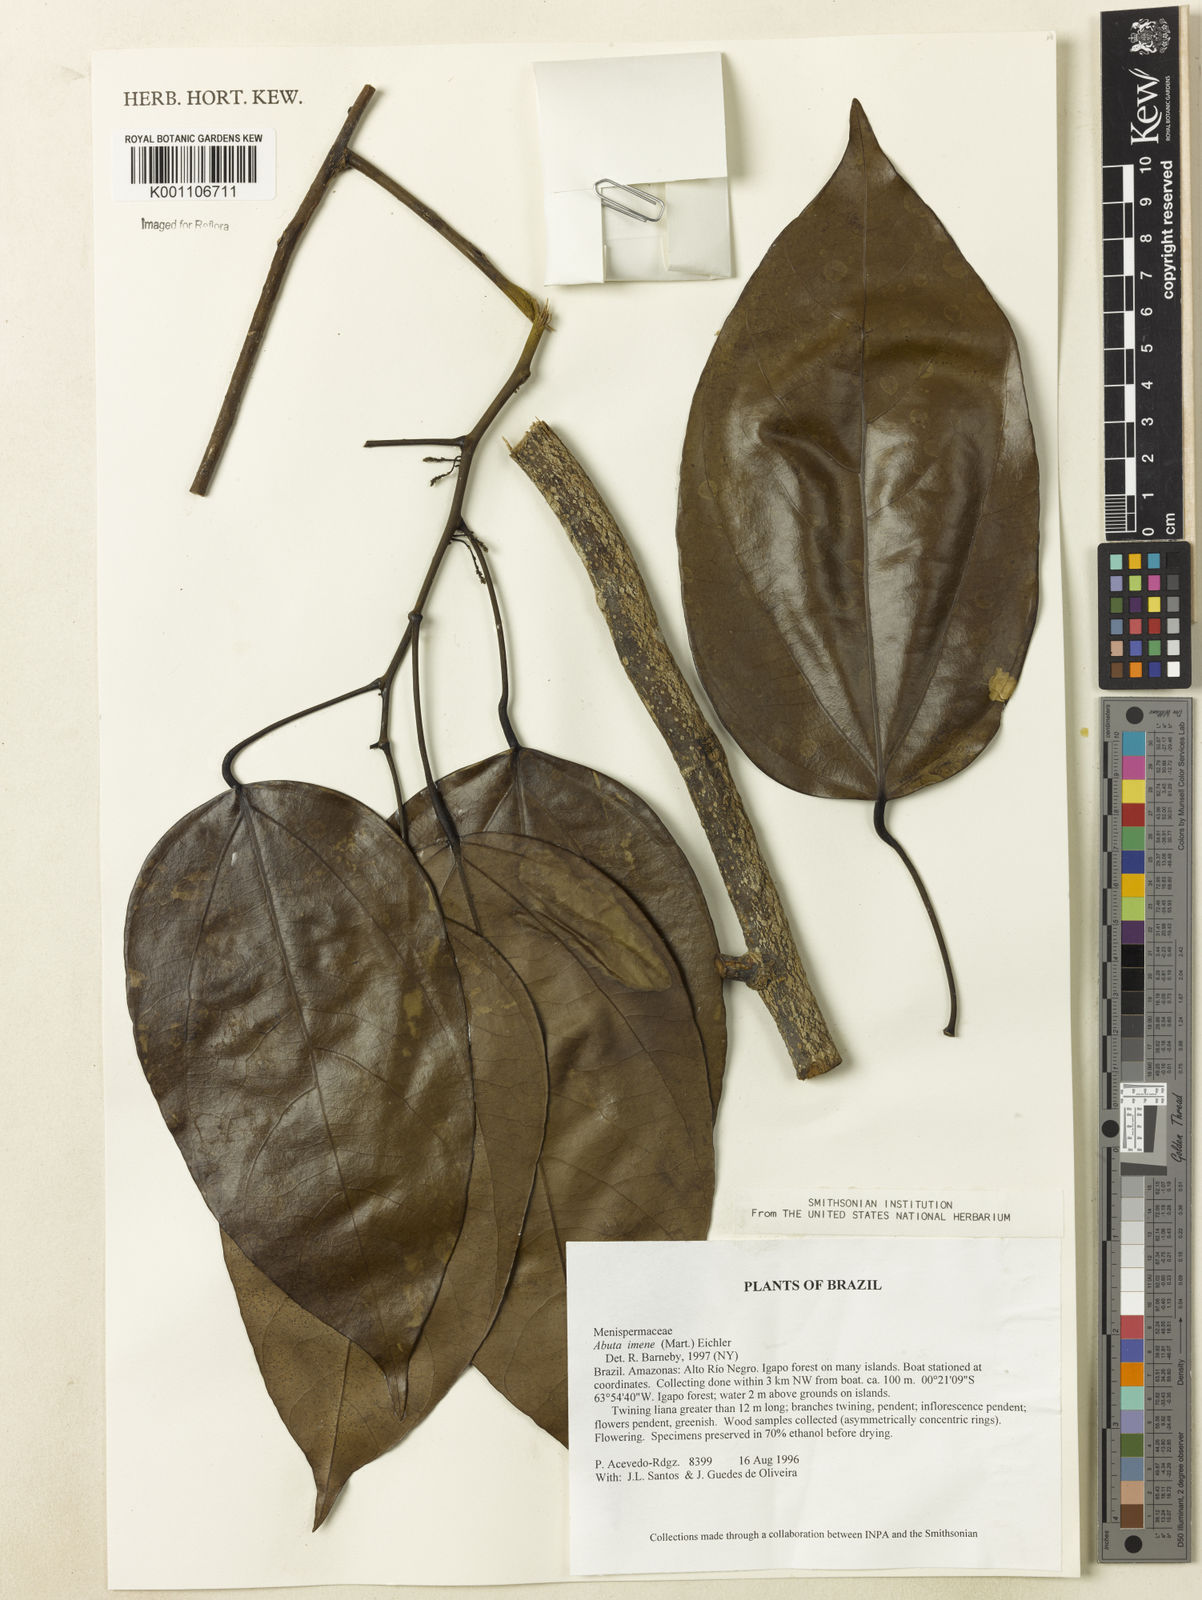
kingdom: Plantae
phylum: Tracheophyta
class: Magnoliopsida
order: Ranunculales
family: Menispermaceae
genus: Abuta
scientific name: Abuta imene
